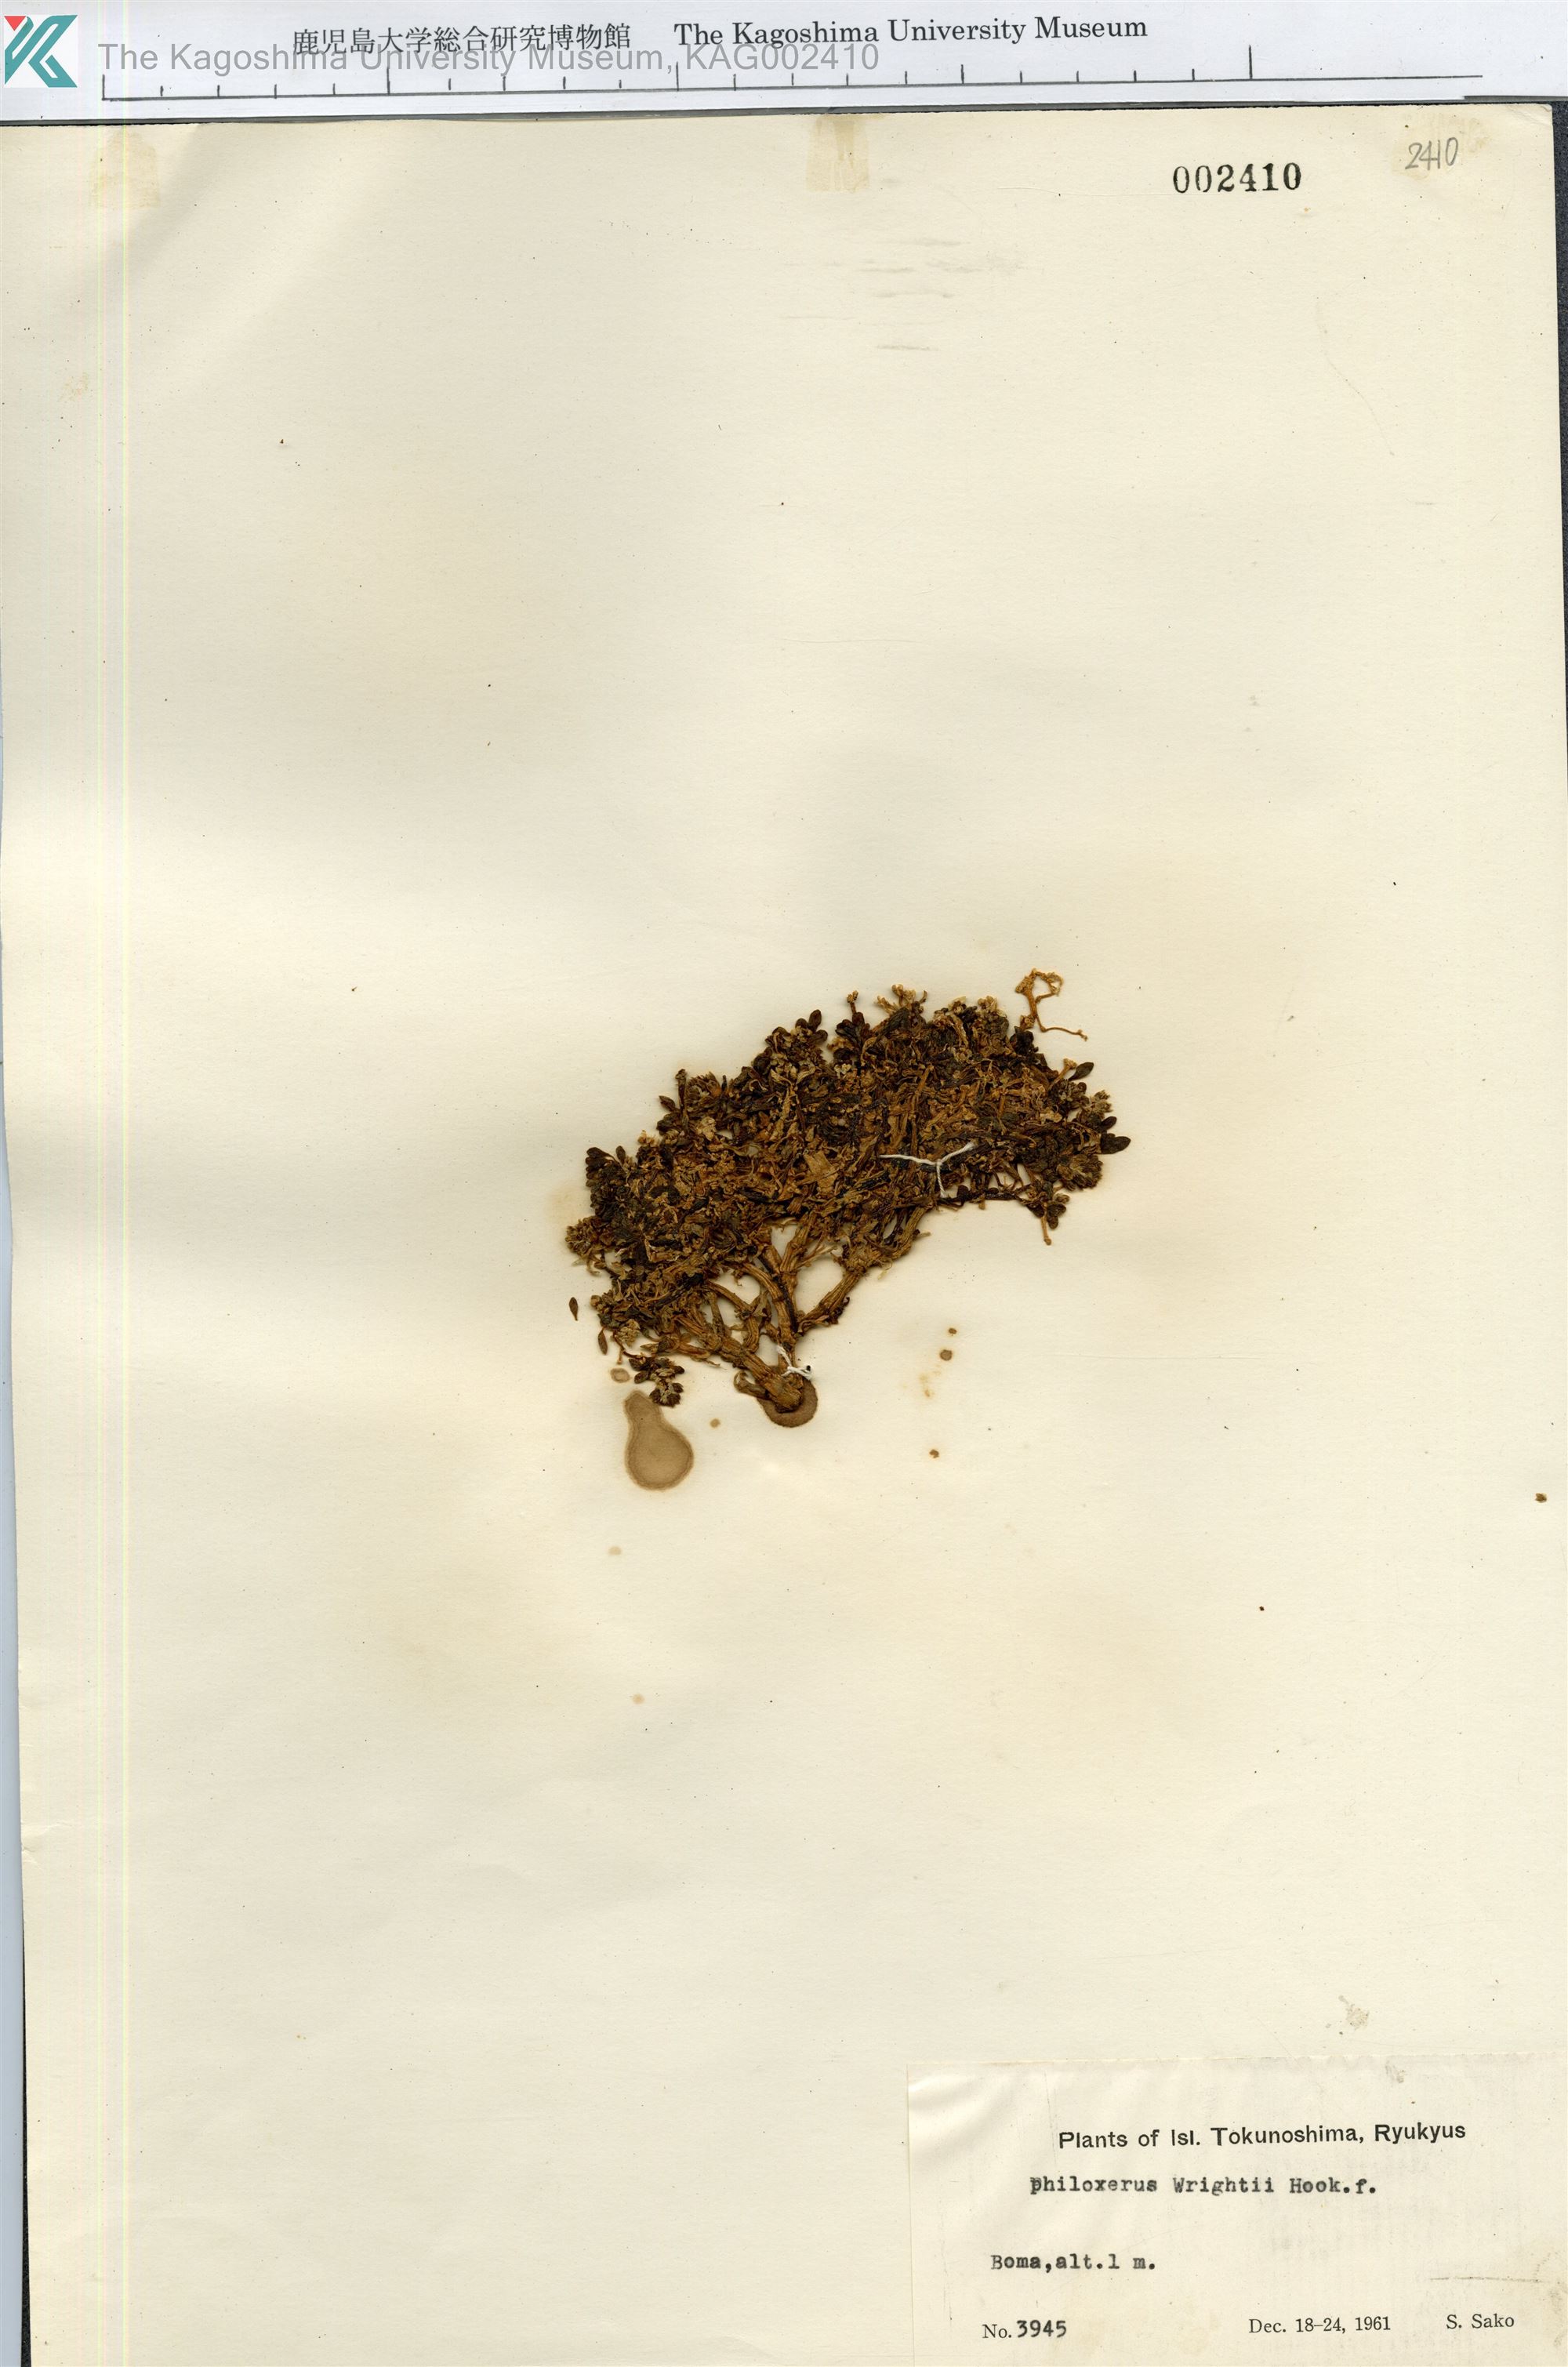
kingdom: Plantae
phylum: Tracheophyta
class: Magnoliopsida
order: Caryophyllales
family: Amaranthaceae
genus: Gomphrena
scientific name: Gomphrena wrightii
